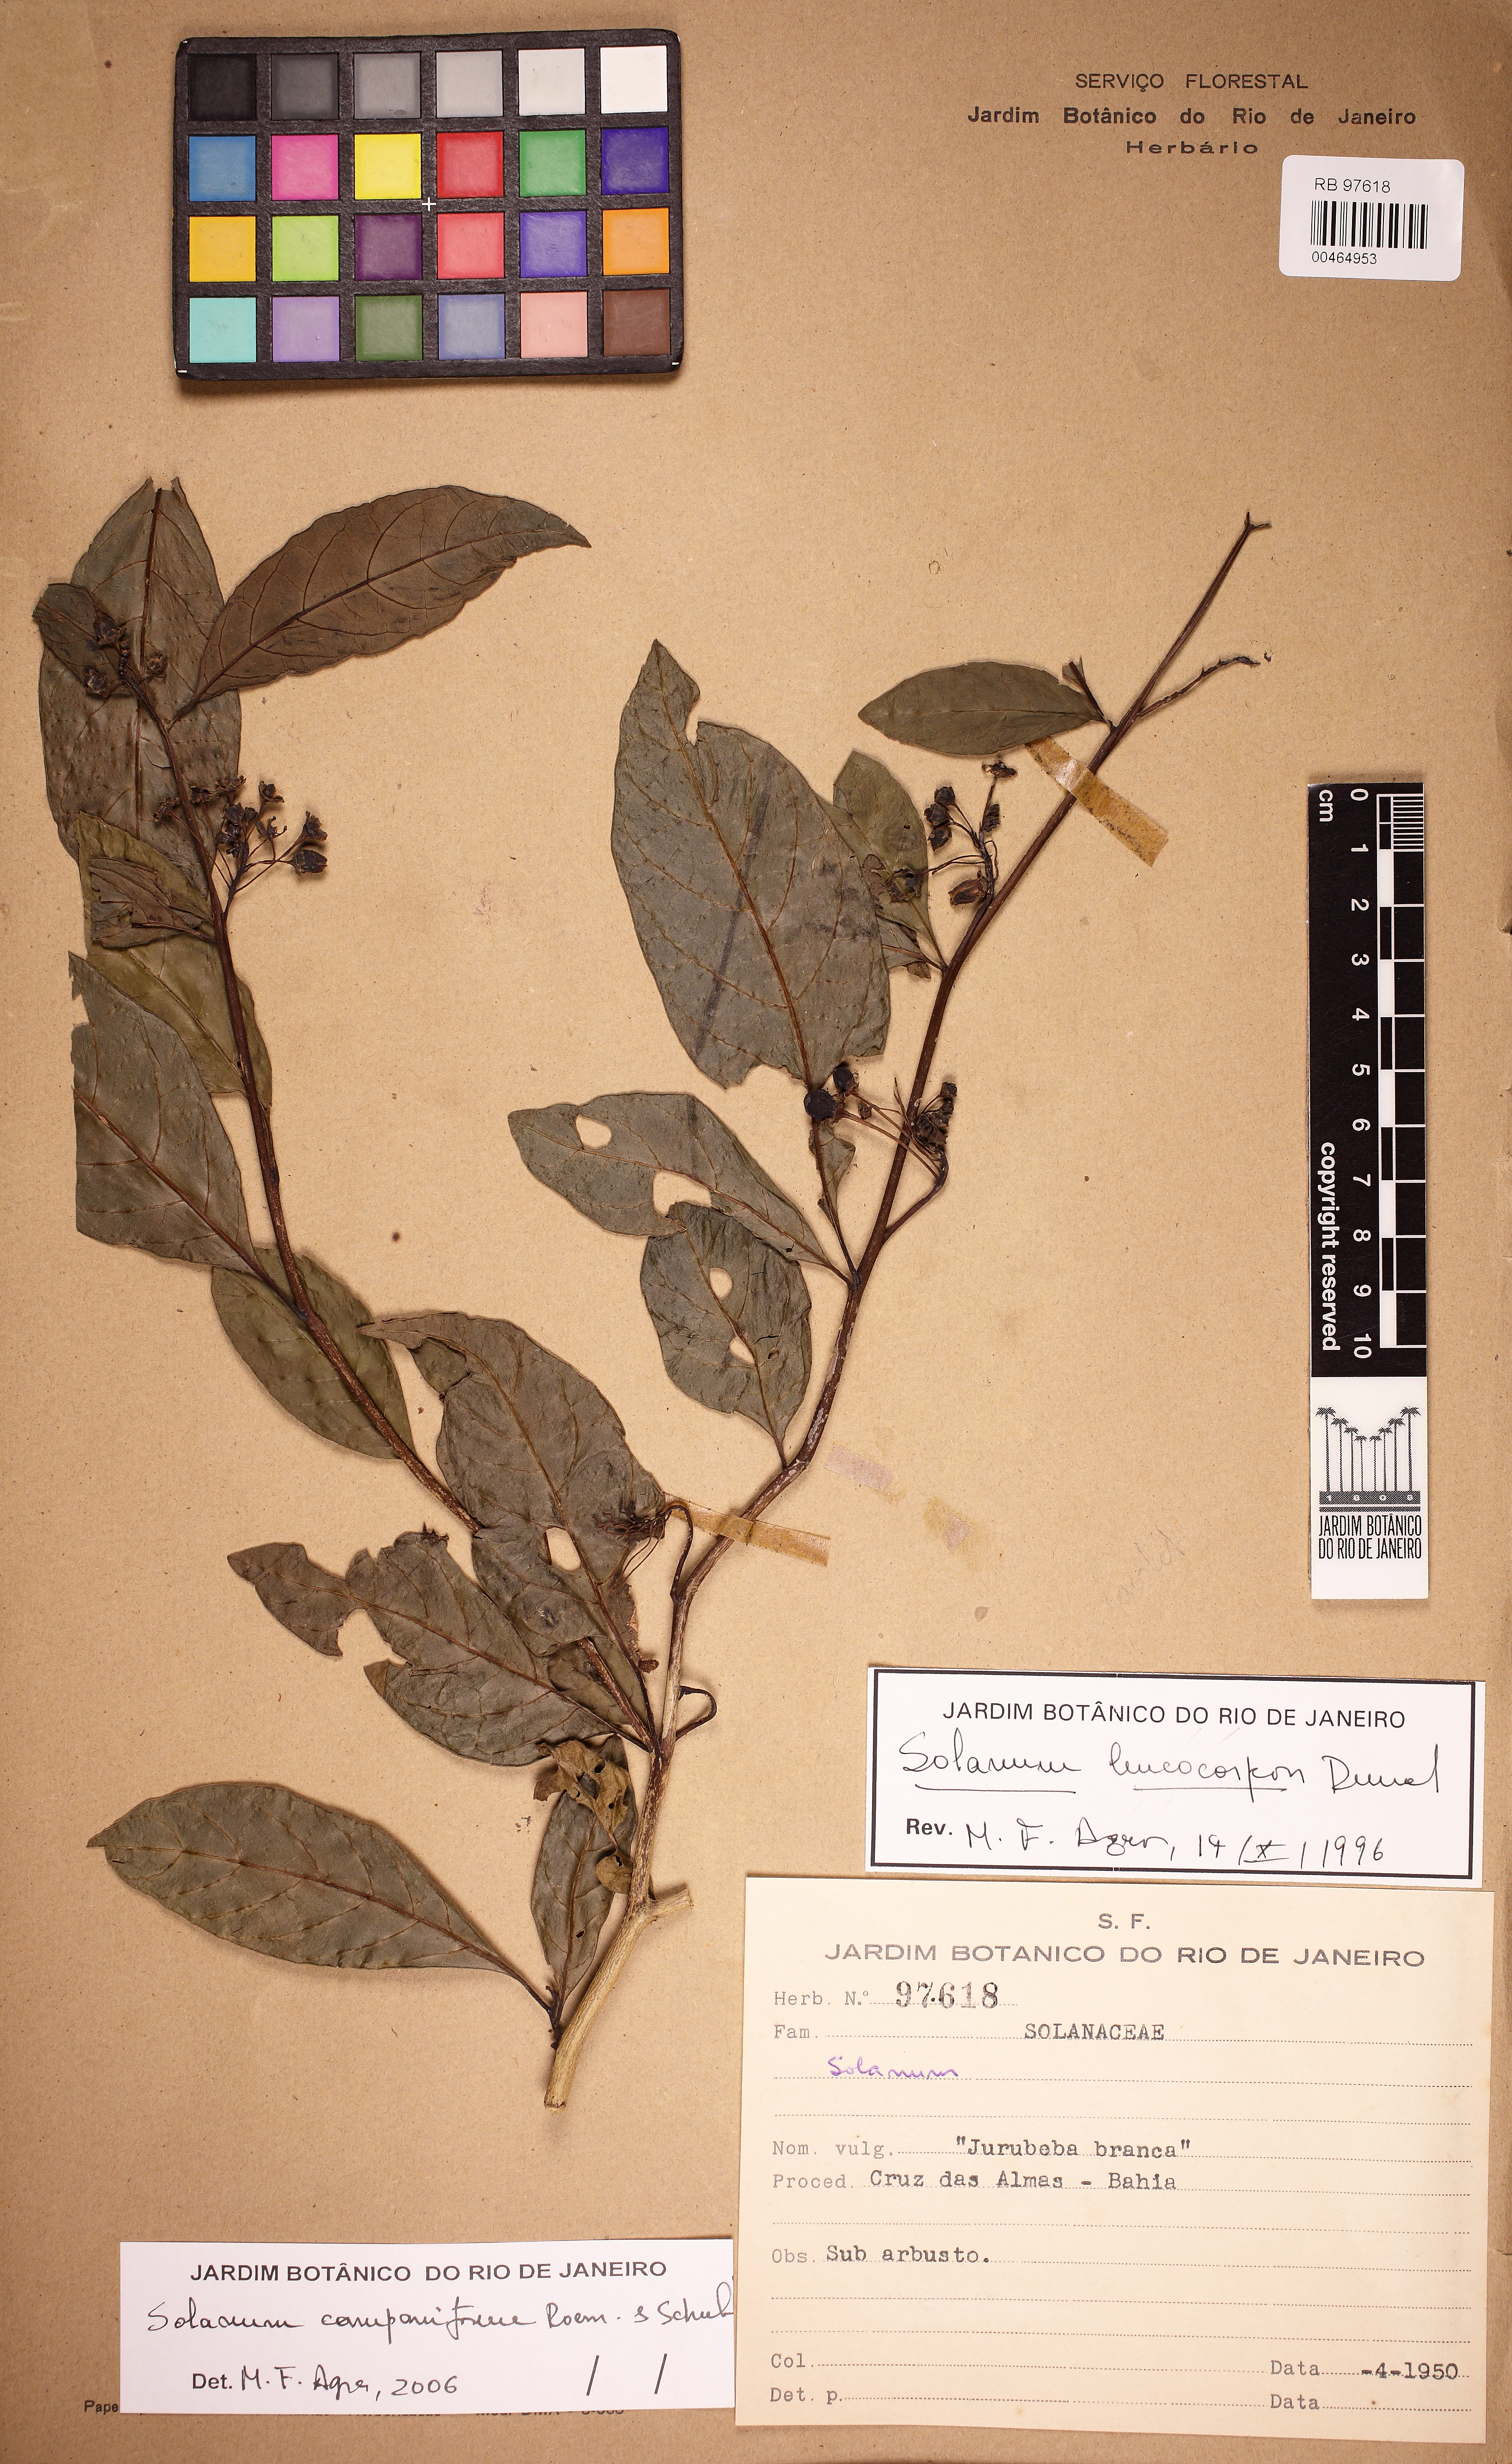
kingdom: Plantae
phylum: Tracheophyta
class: Magnoliopsida
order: Solanales
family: Solanaceae
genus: Solanum
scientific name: Solanum campaniforme
